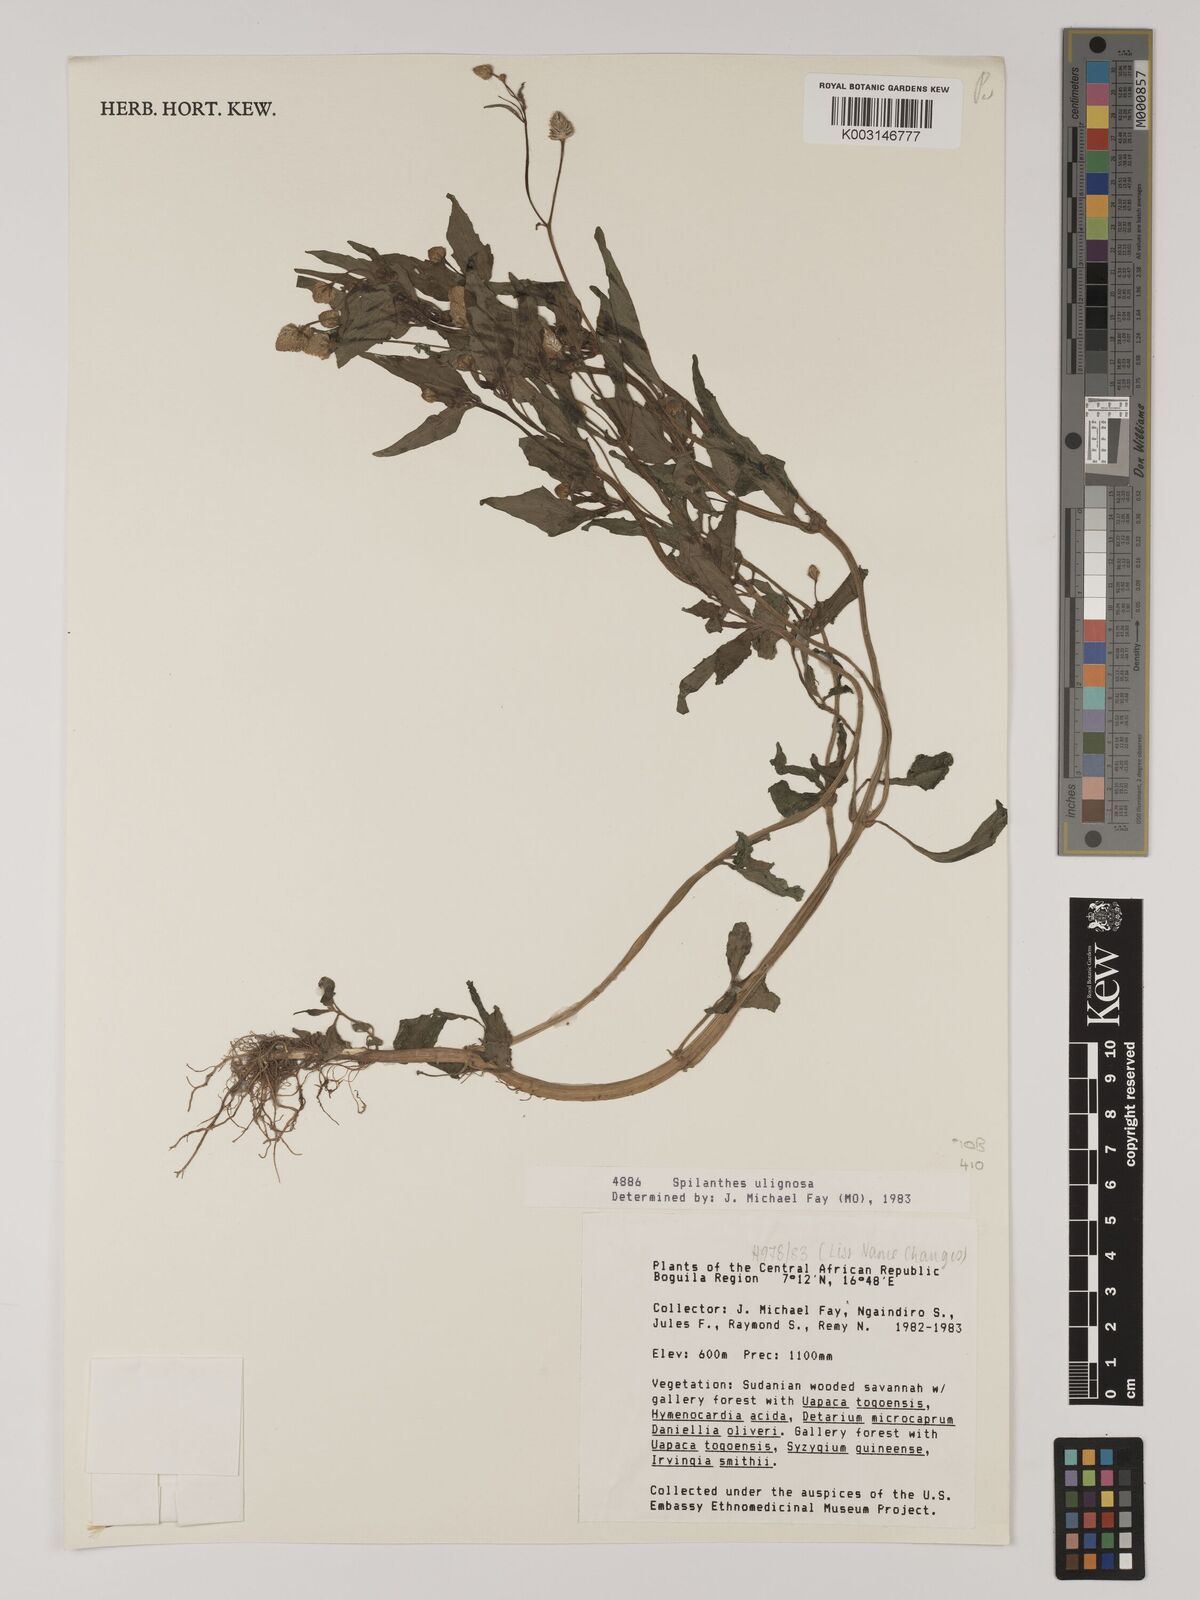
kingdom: Plantae
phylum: Tracheophyta
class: Magnoliopsida
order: Asterales
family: Asteraceae
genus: Acmella
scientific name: Acmella uliginosa
